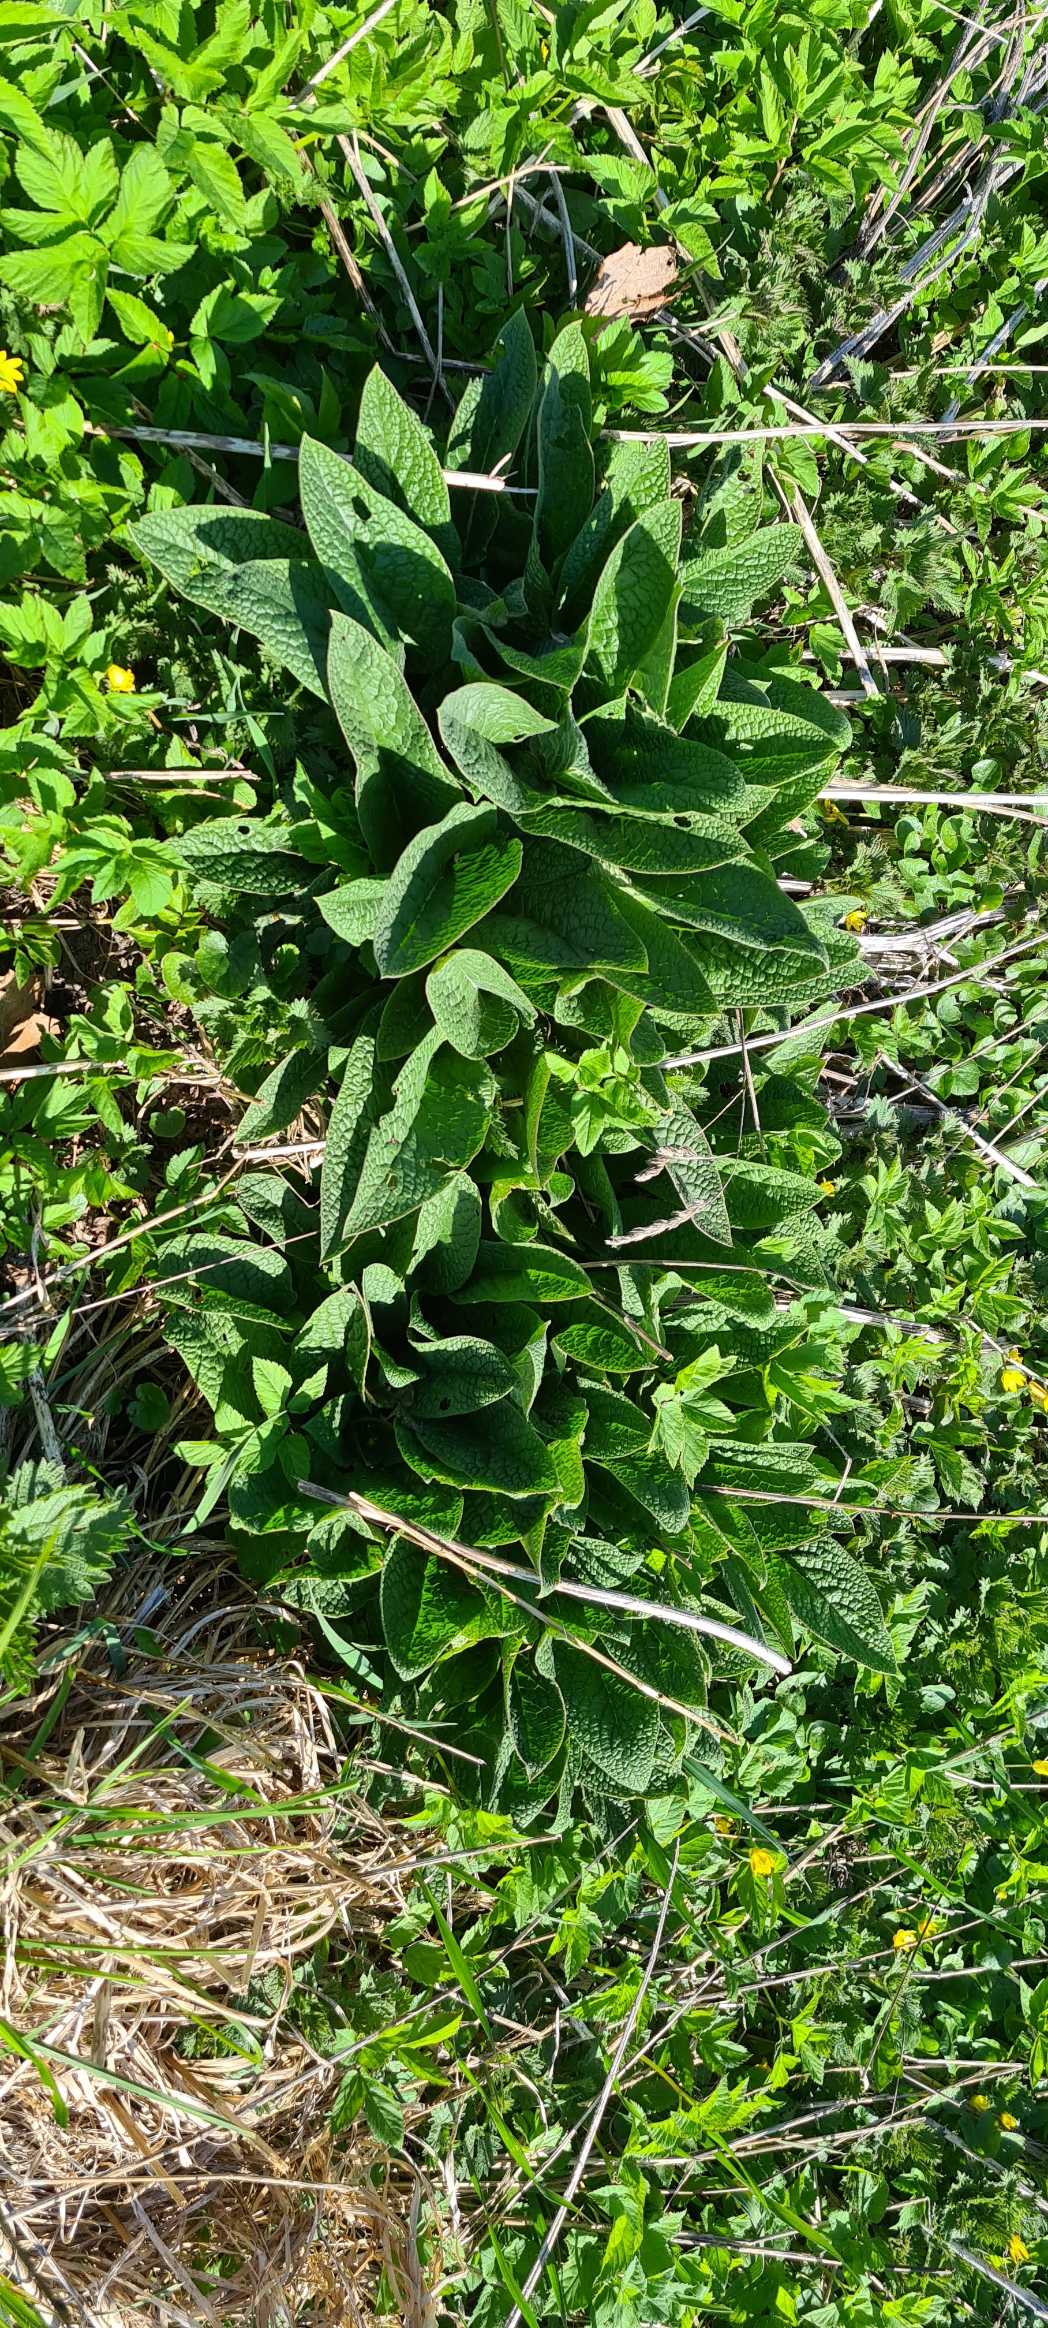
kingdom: Plantae
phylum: Tracheophyta
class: Magnoliopsida
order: Boraginales
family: Boraginaceae
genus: Symphytum
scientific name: Symphytum
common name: Kulsukkerslægten
